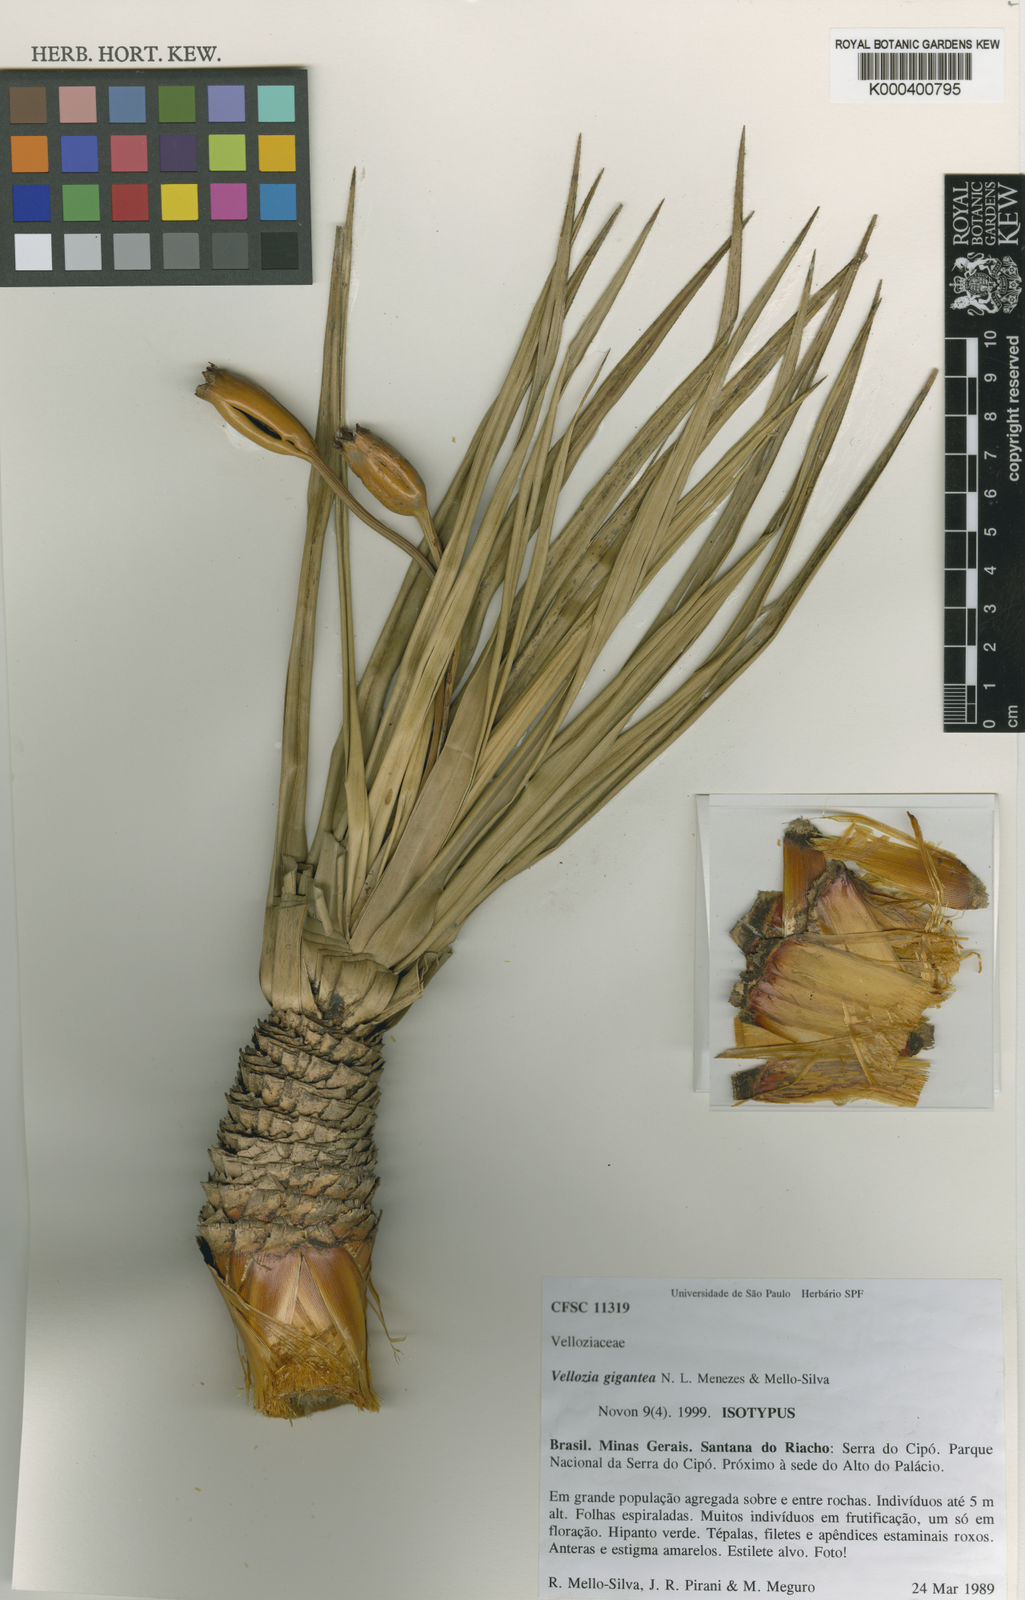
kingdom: Plantae
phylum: Tracheophyta
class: Liliopsida
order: Pandanales
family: Velloziaceae
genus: Vellozia
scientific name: Vellozia gigantea
